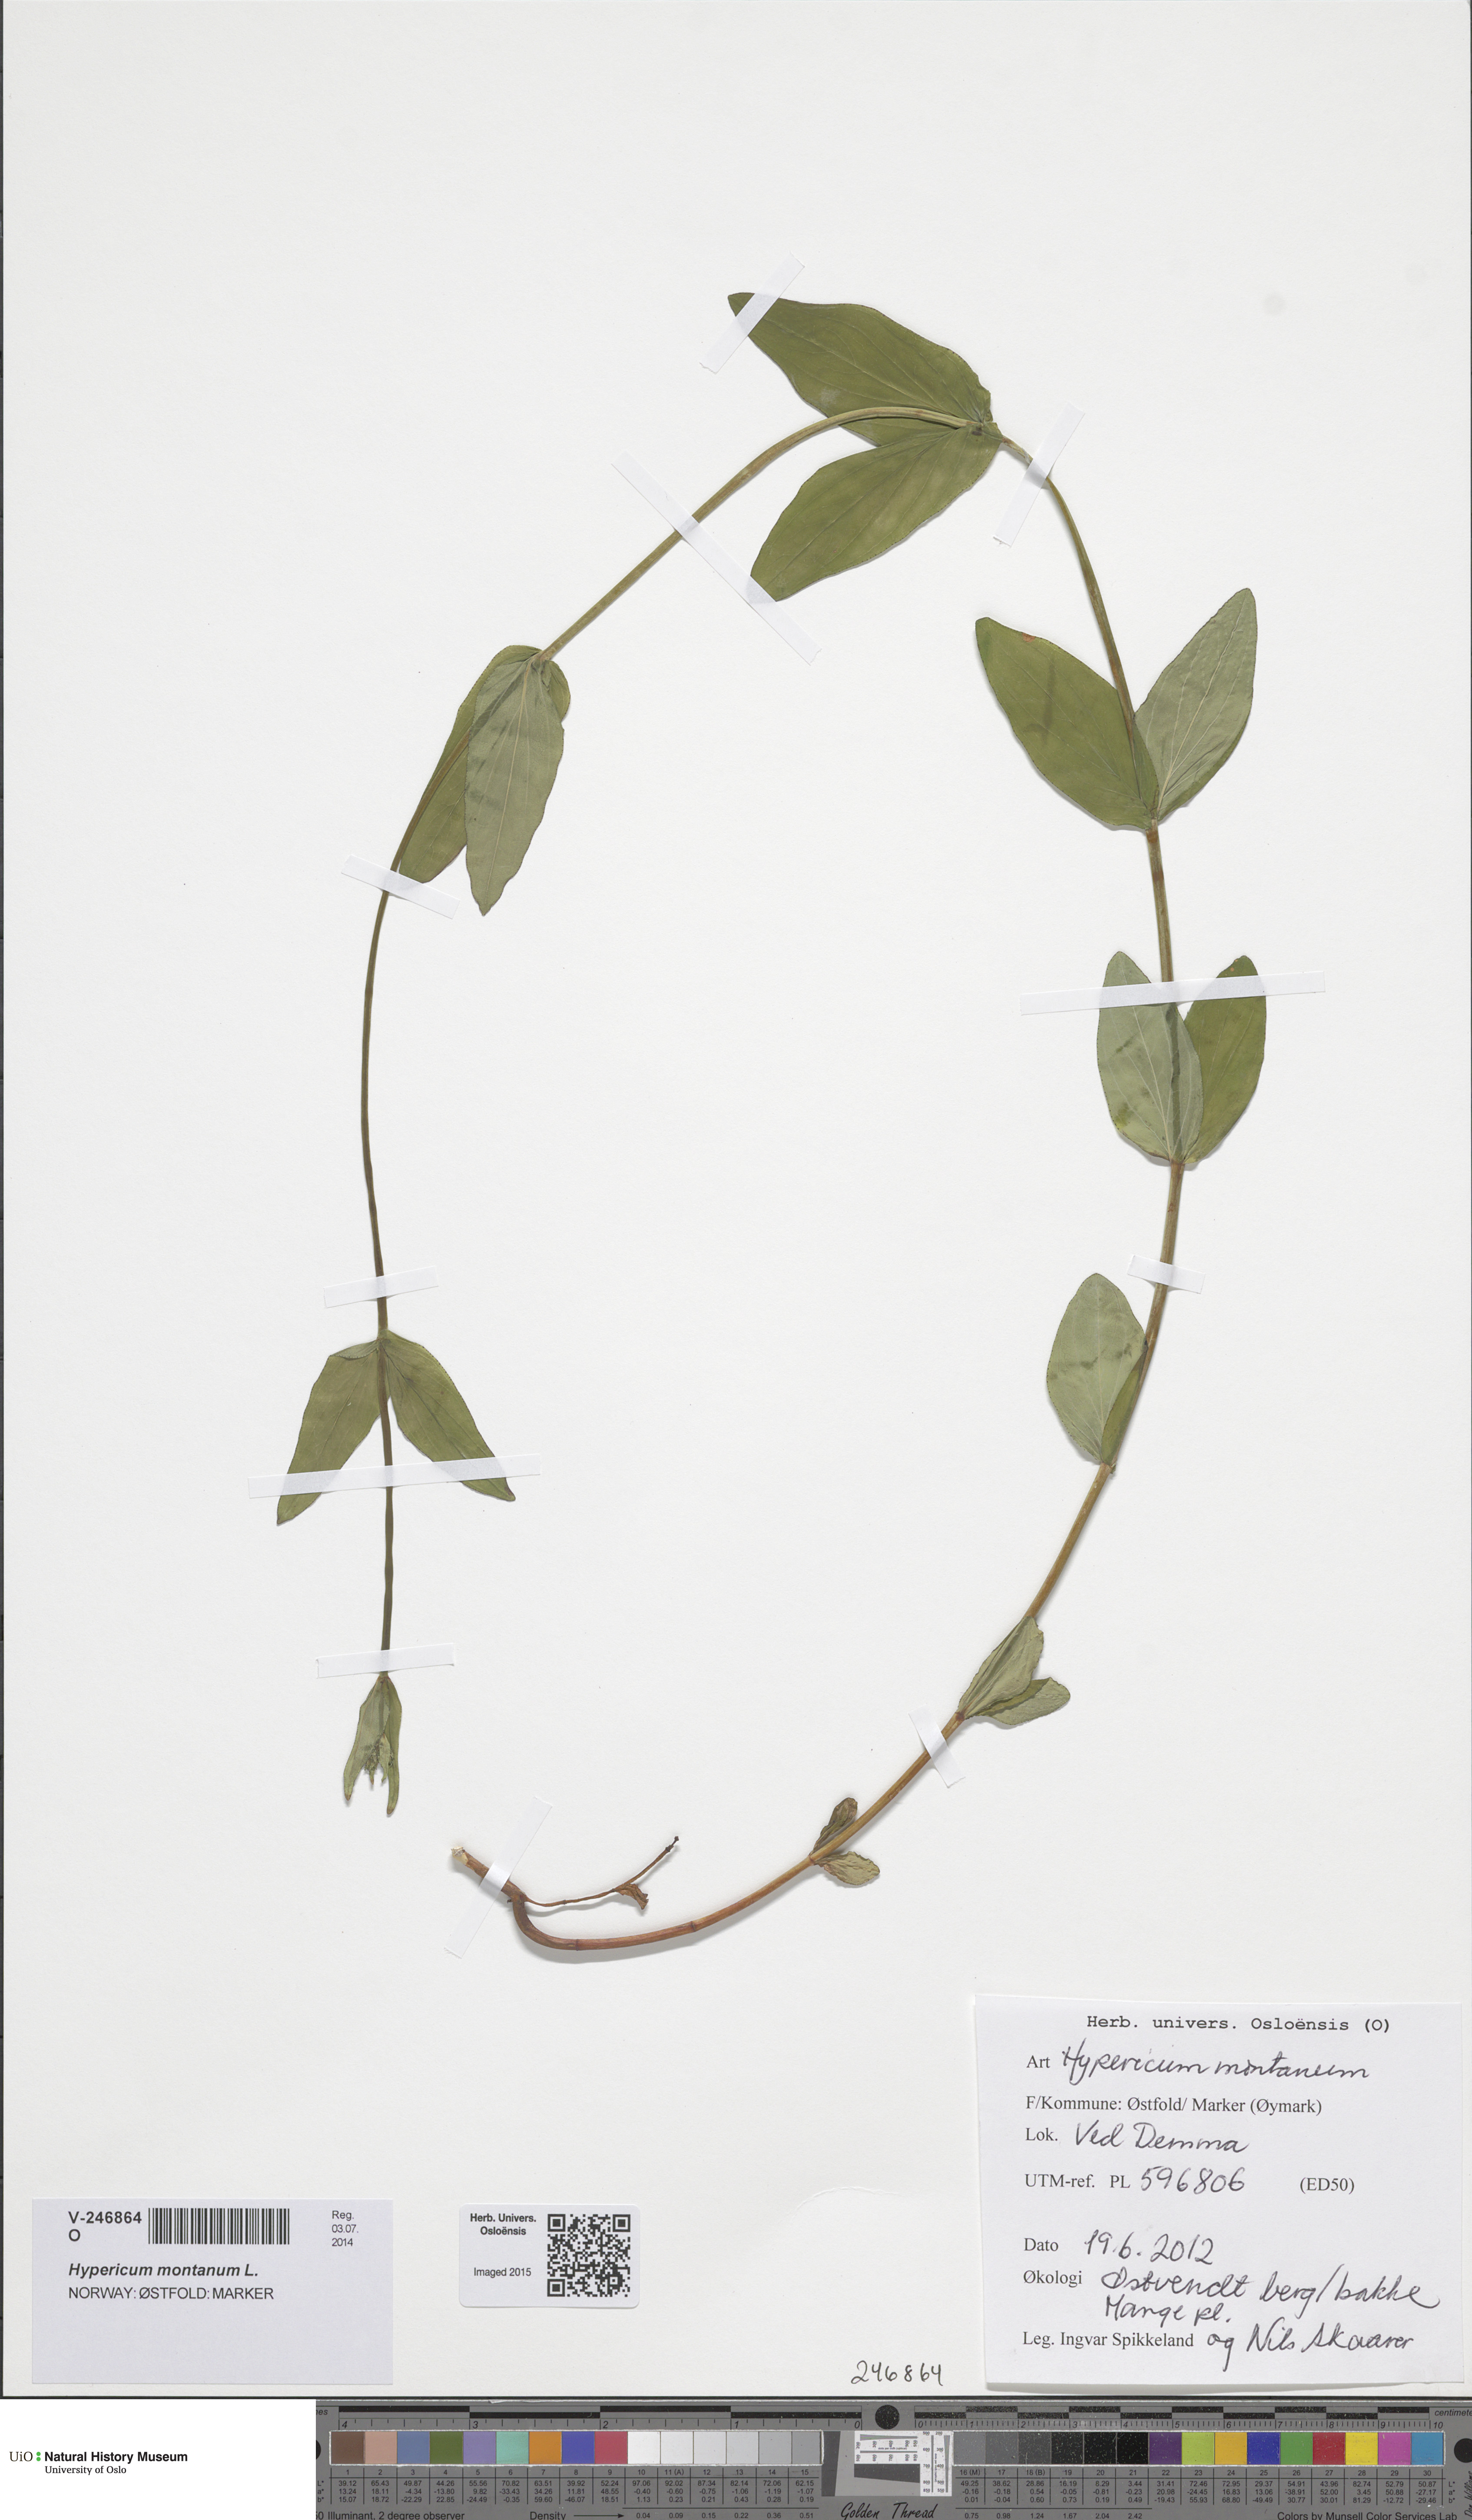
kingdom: Plantae
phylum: Tracheophyta
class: Magnoliopsida
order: Malpighiales
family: Hypericaceae
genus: Hypericum
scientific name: Hypericum montanum
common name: Pale st. john's-wort
